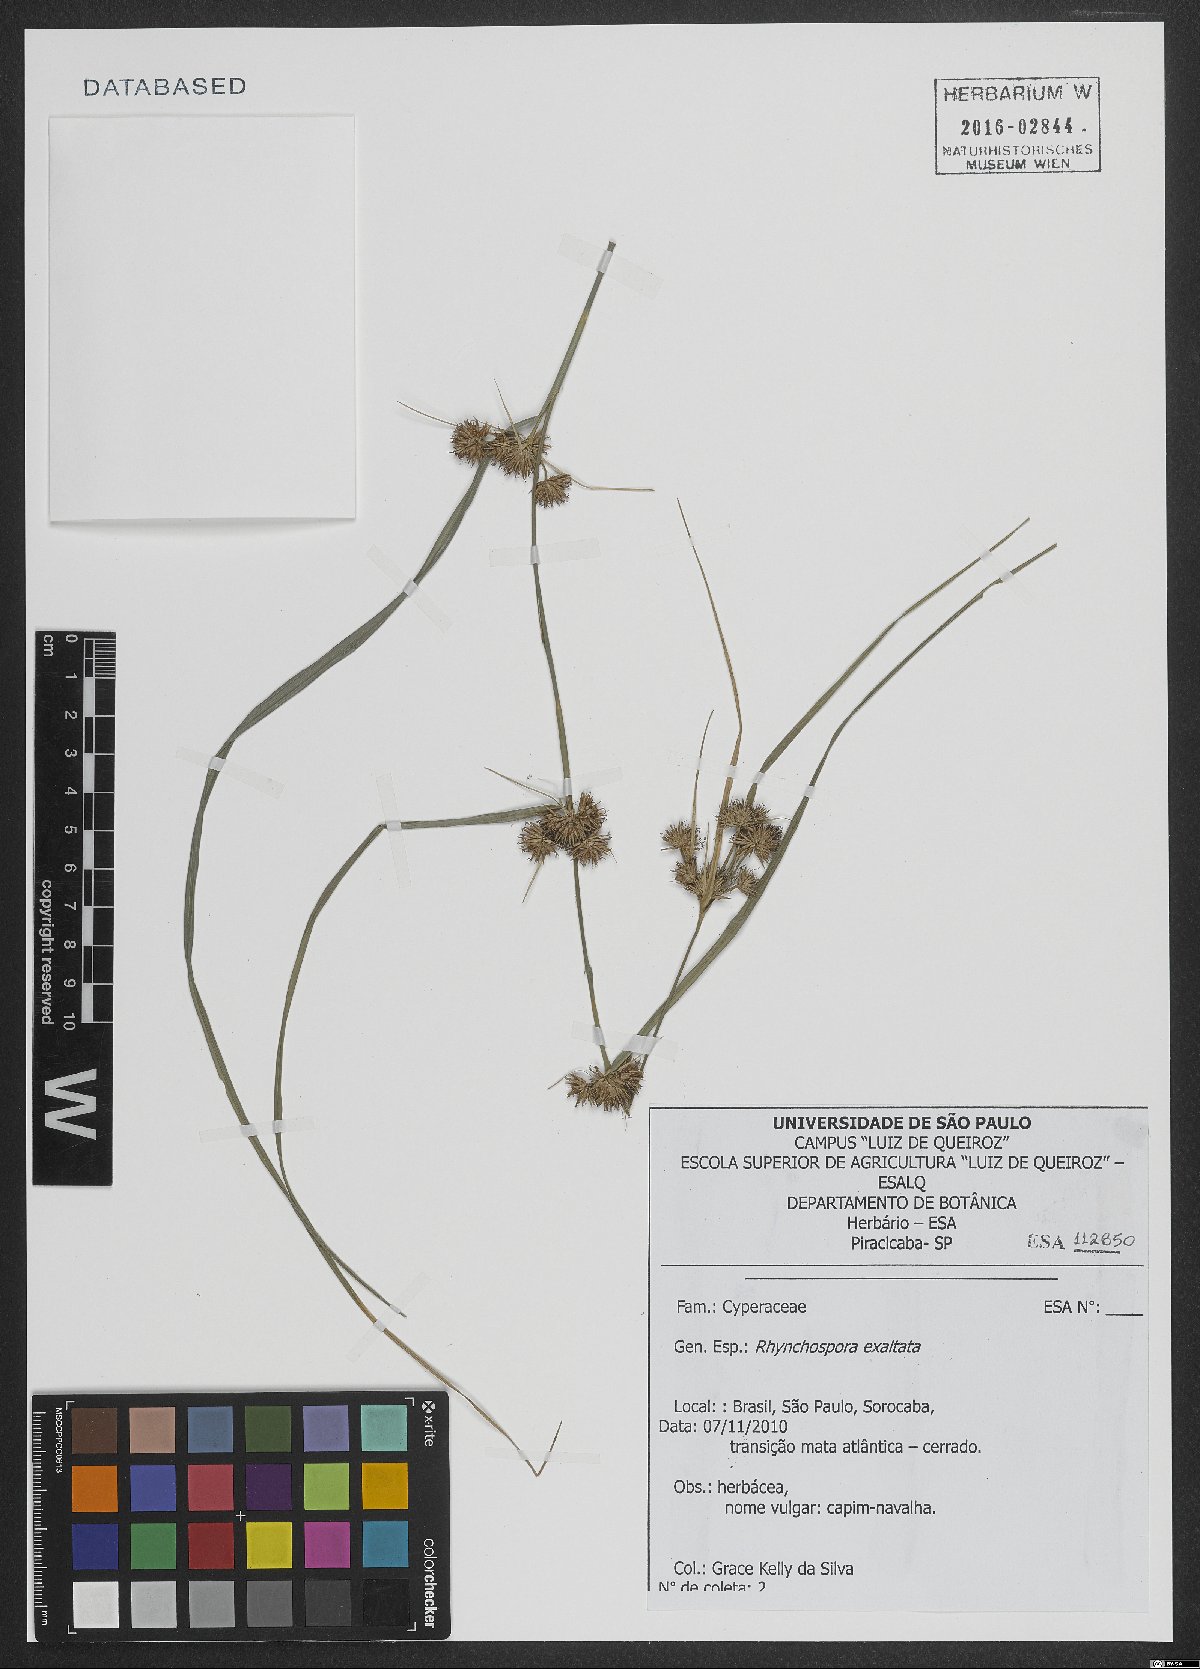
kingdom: Plantae
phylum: Tracheophyta
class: Liliopsida
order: Poales
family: Cyperaceae
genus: Rhynchospora
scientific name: Rhynchospora exaltata
